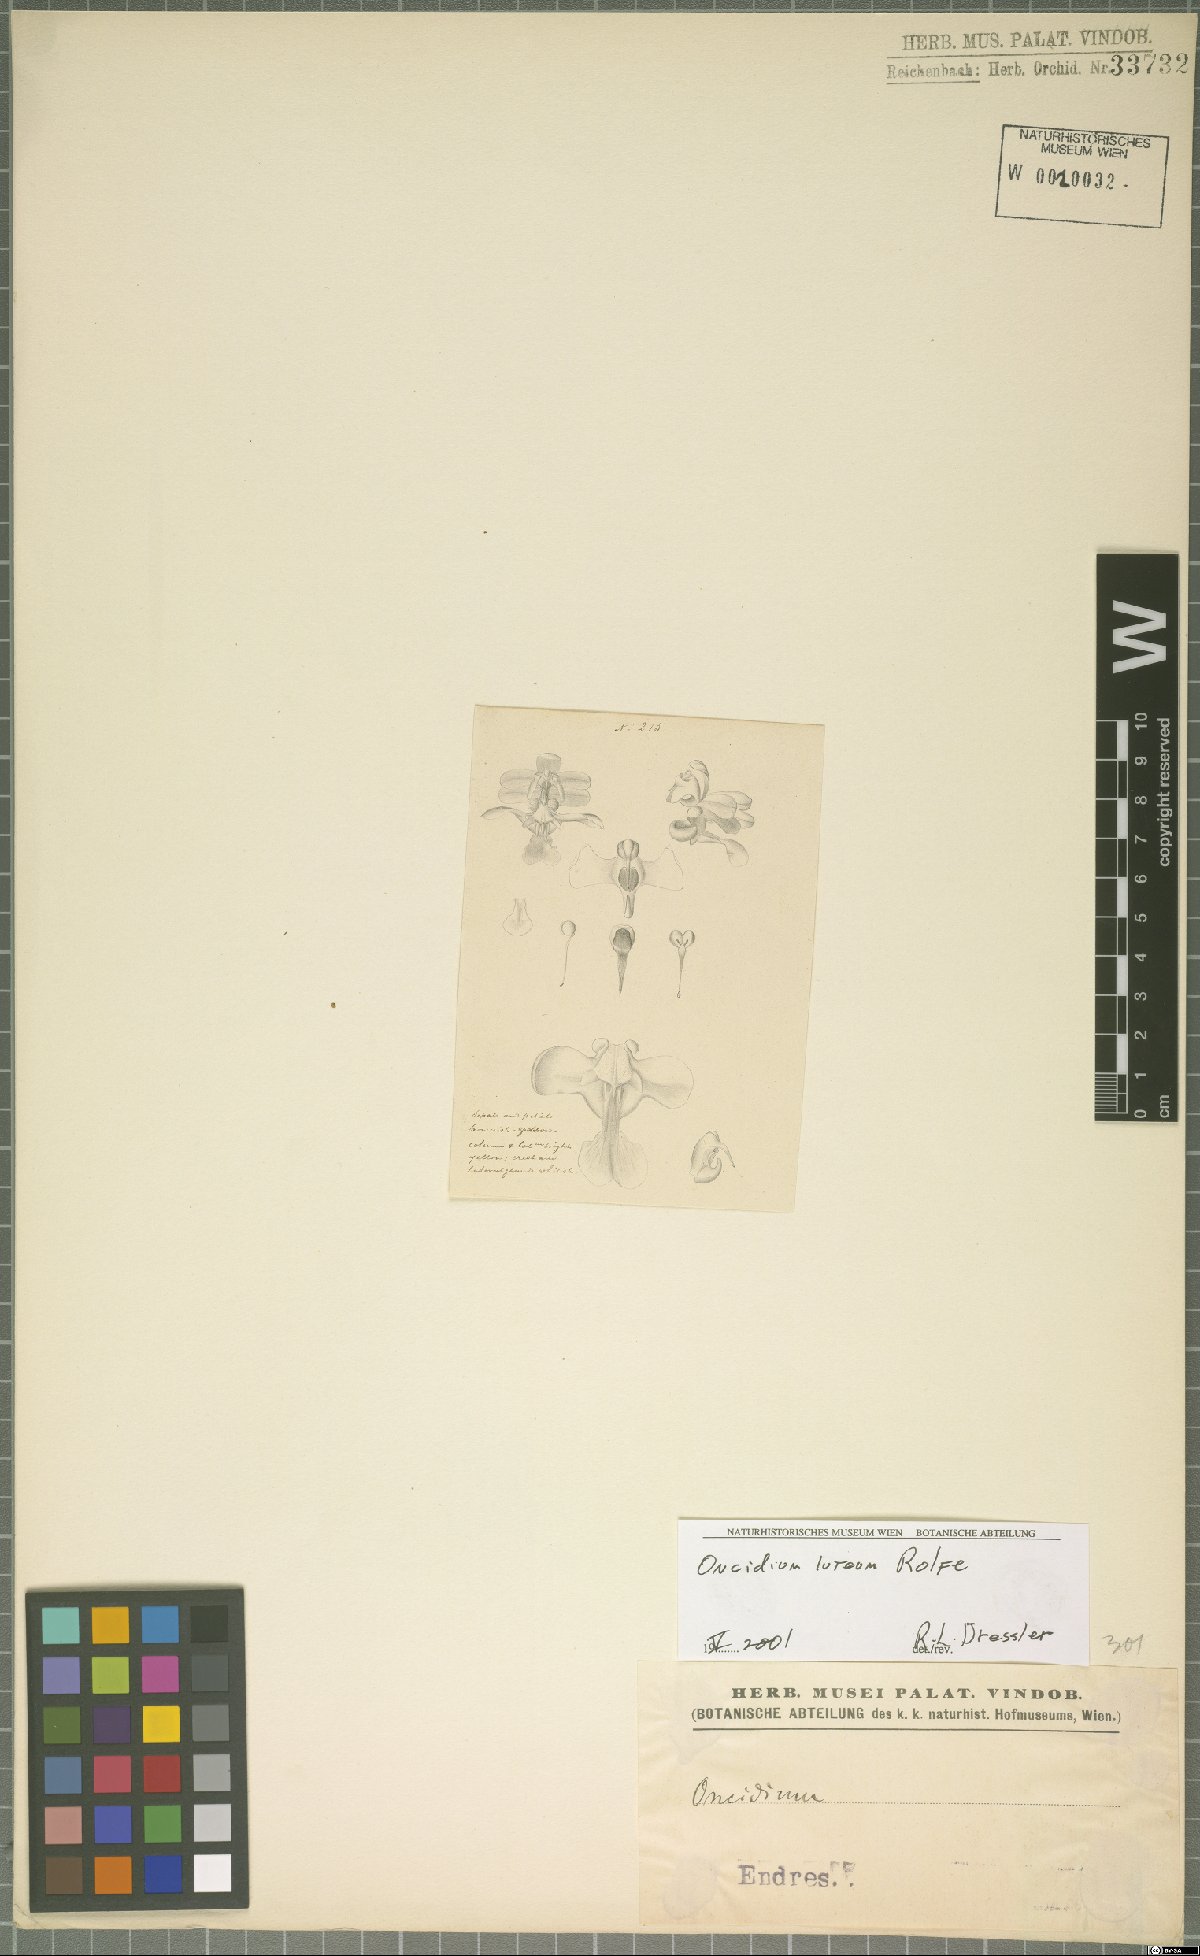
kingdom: Plantae
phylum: Tracheophyta
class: Liliopsida
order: Asparagales
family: Orchidaceae
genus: Oncidium
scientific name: Oncidium luteum
